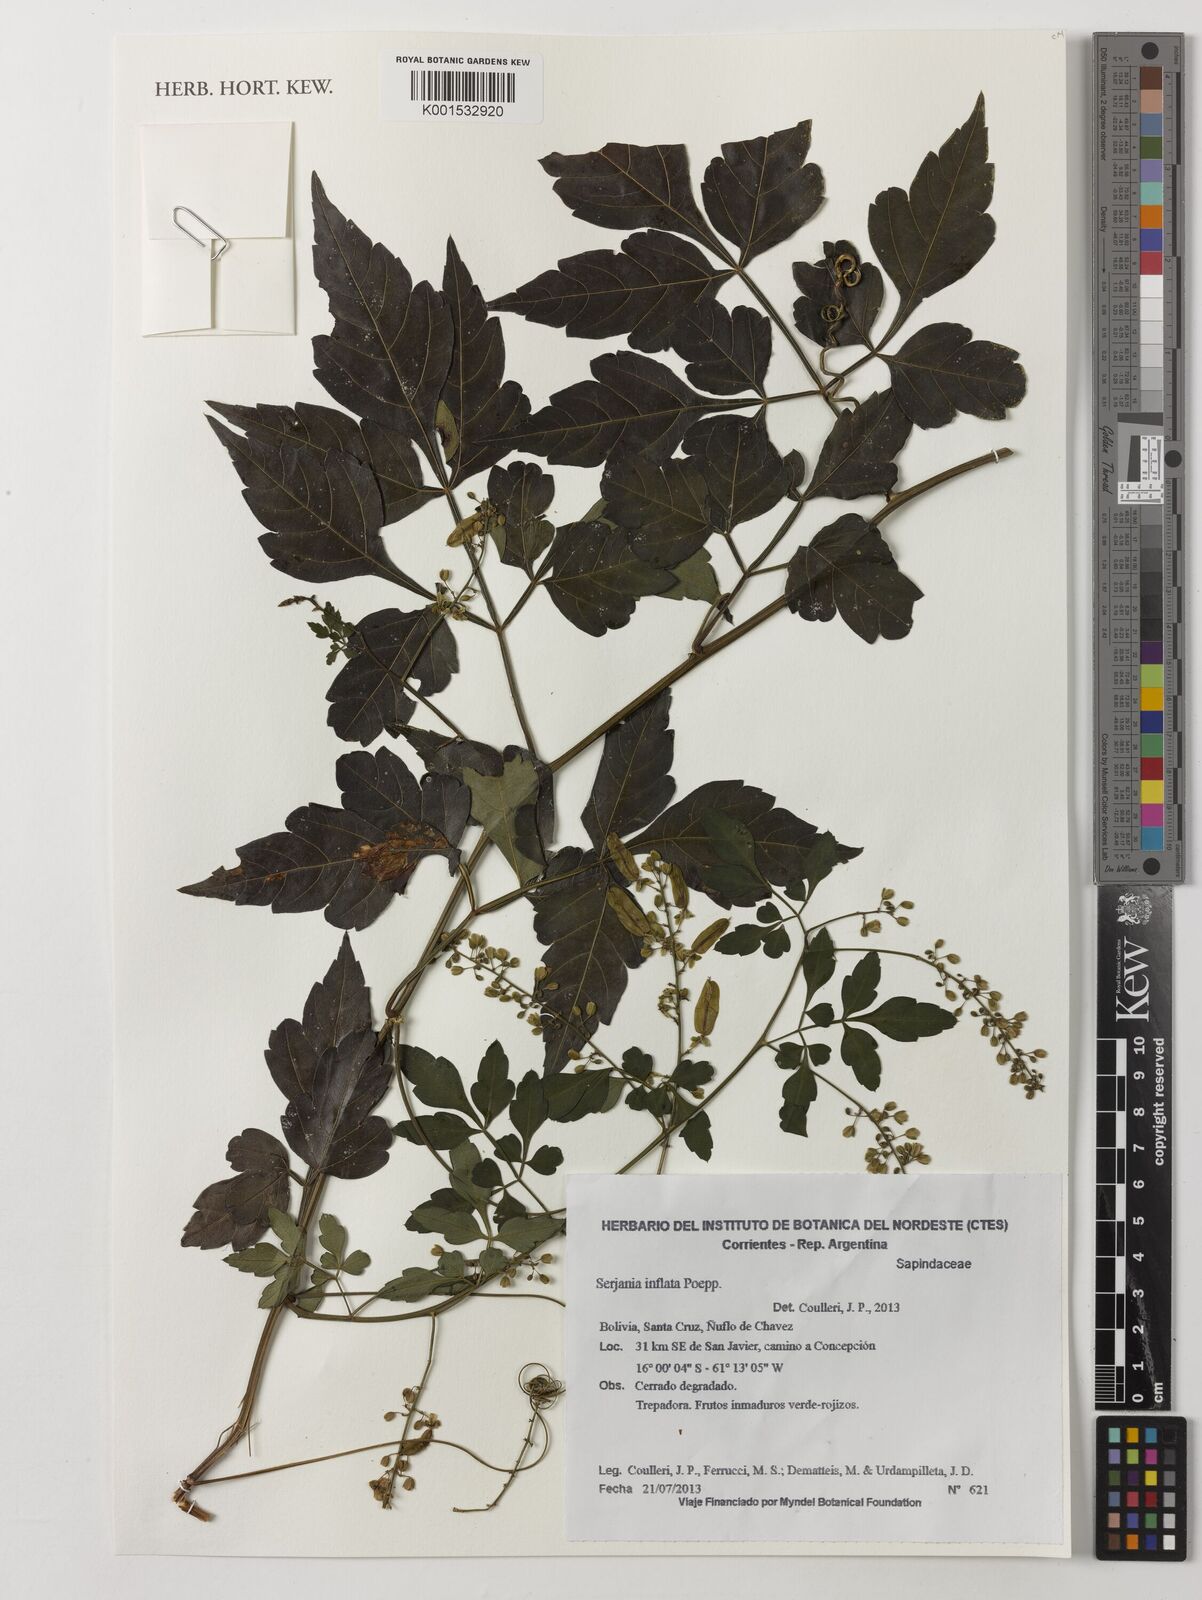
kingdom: Plantae
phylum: Tracheophyta
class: Magnoliopsida
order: Sapindales
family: Sapindaceae
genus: Serjania
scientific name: Serjania inflata
